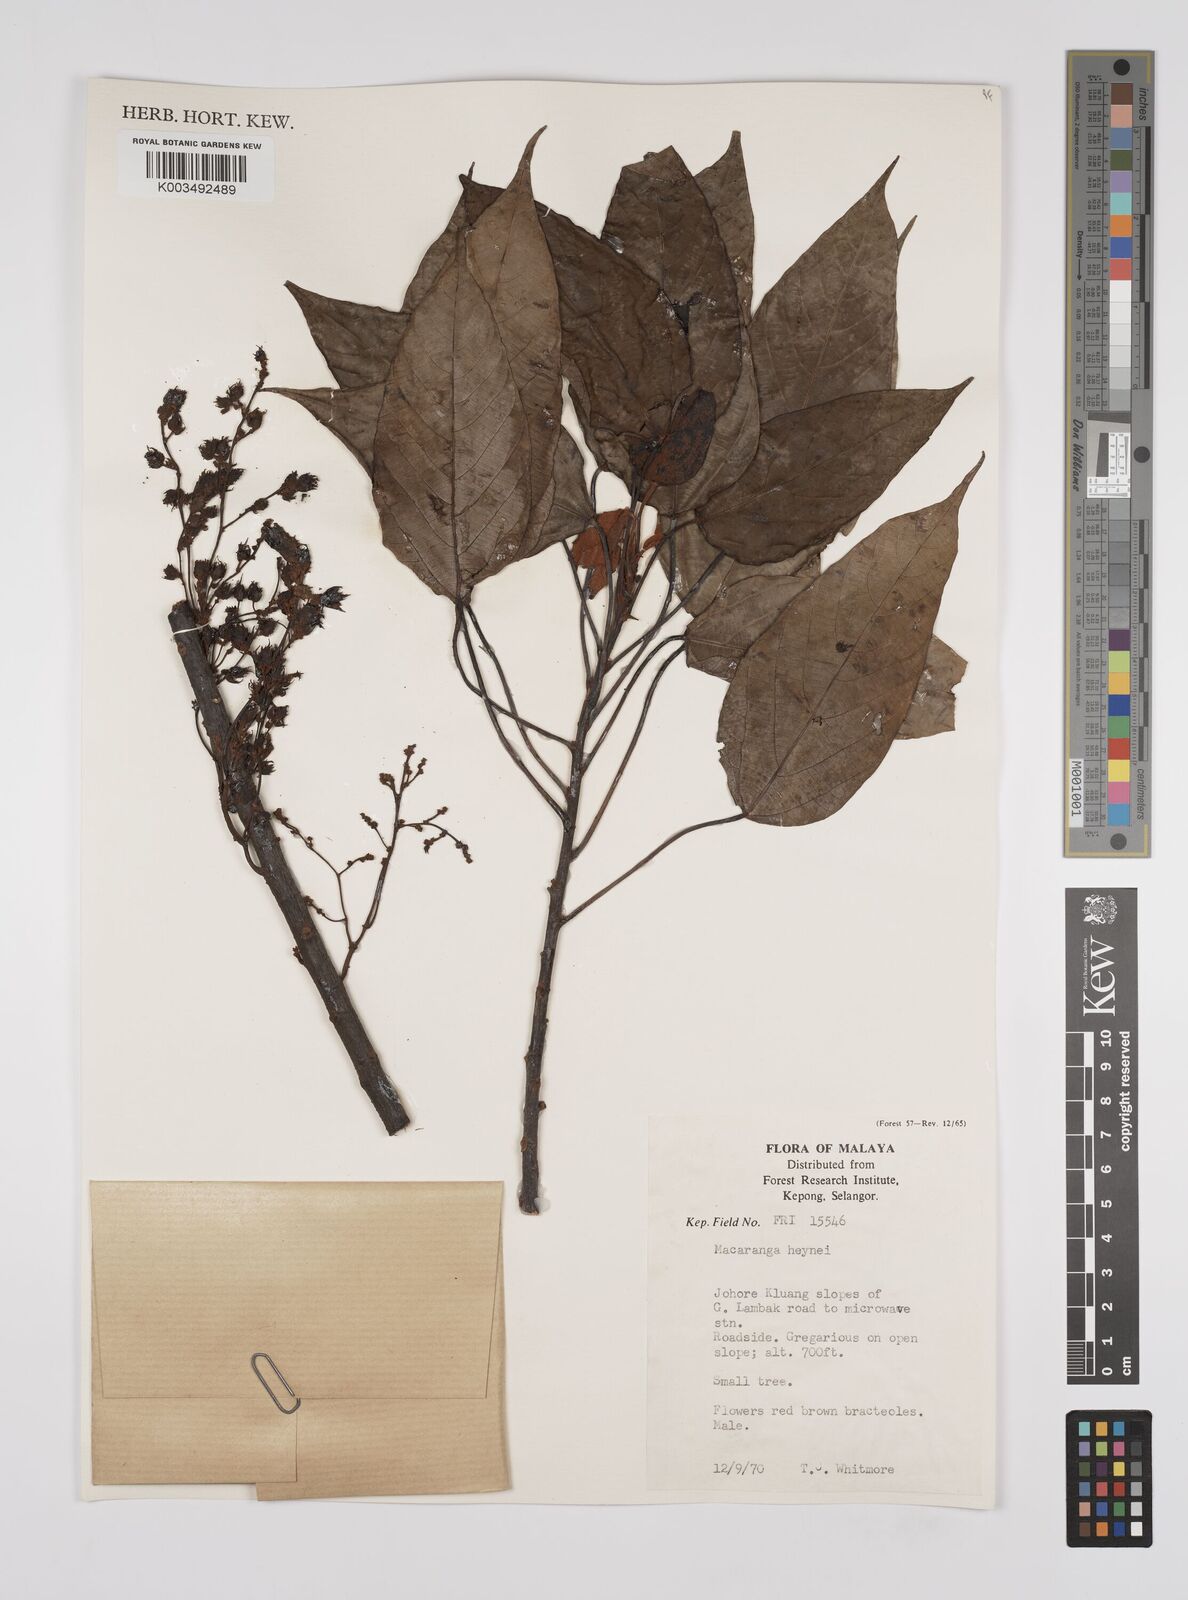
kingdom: Plantae
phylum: Tracheophyta
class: Magnoliopsida
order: Malpighiales
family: Euphorbiaceae
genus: Macaranga
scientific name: Macaranga heynei
